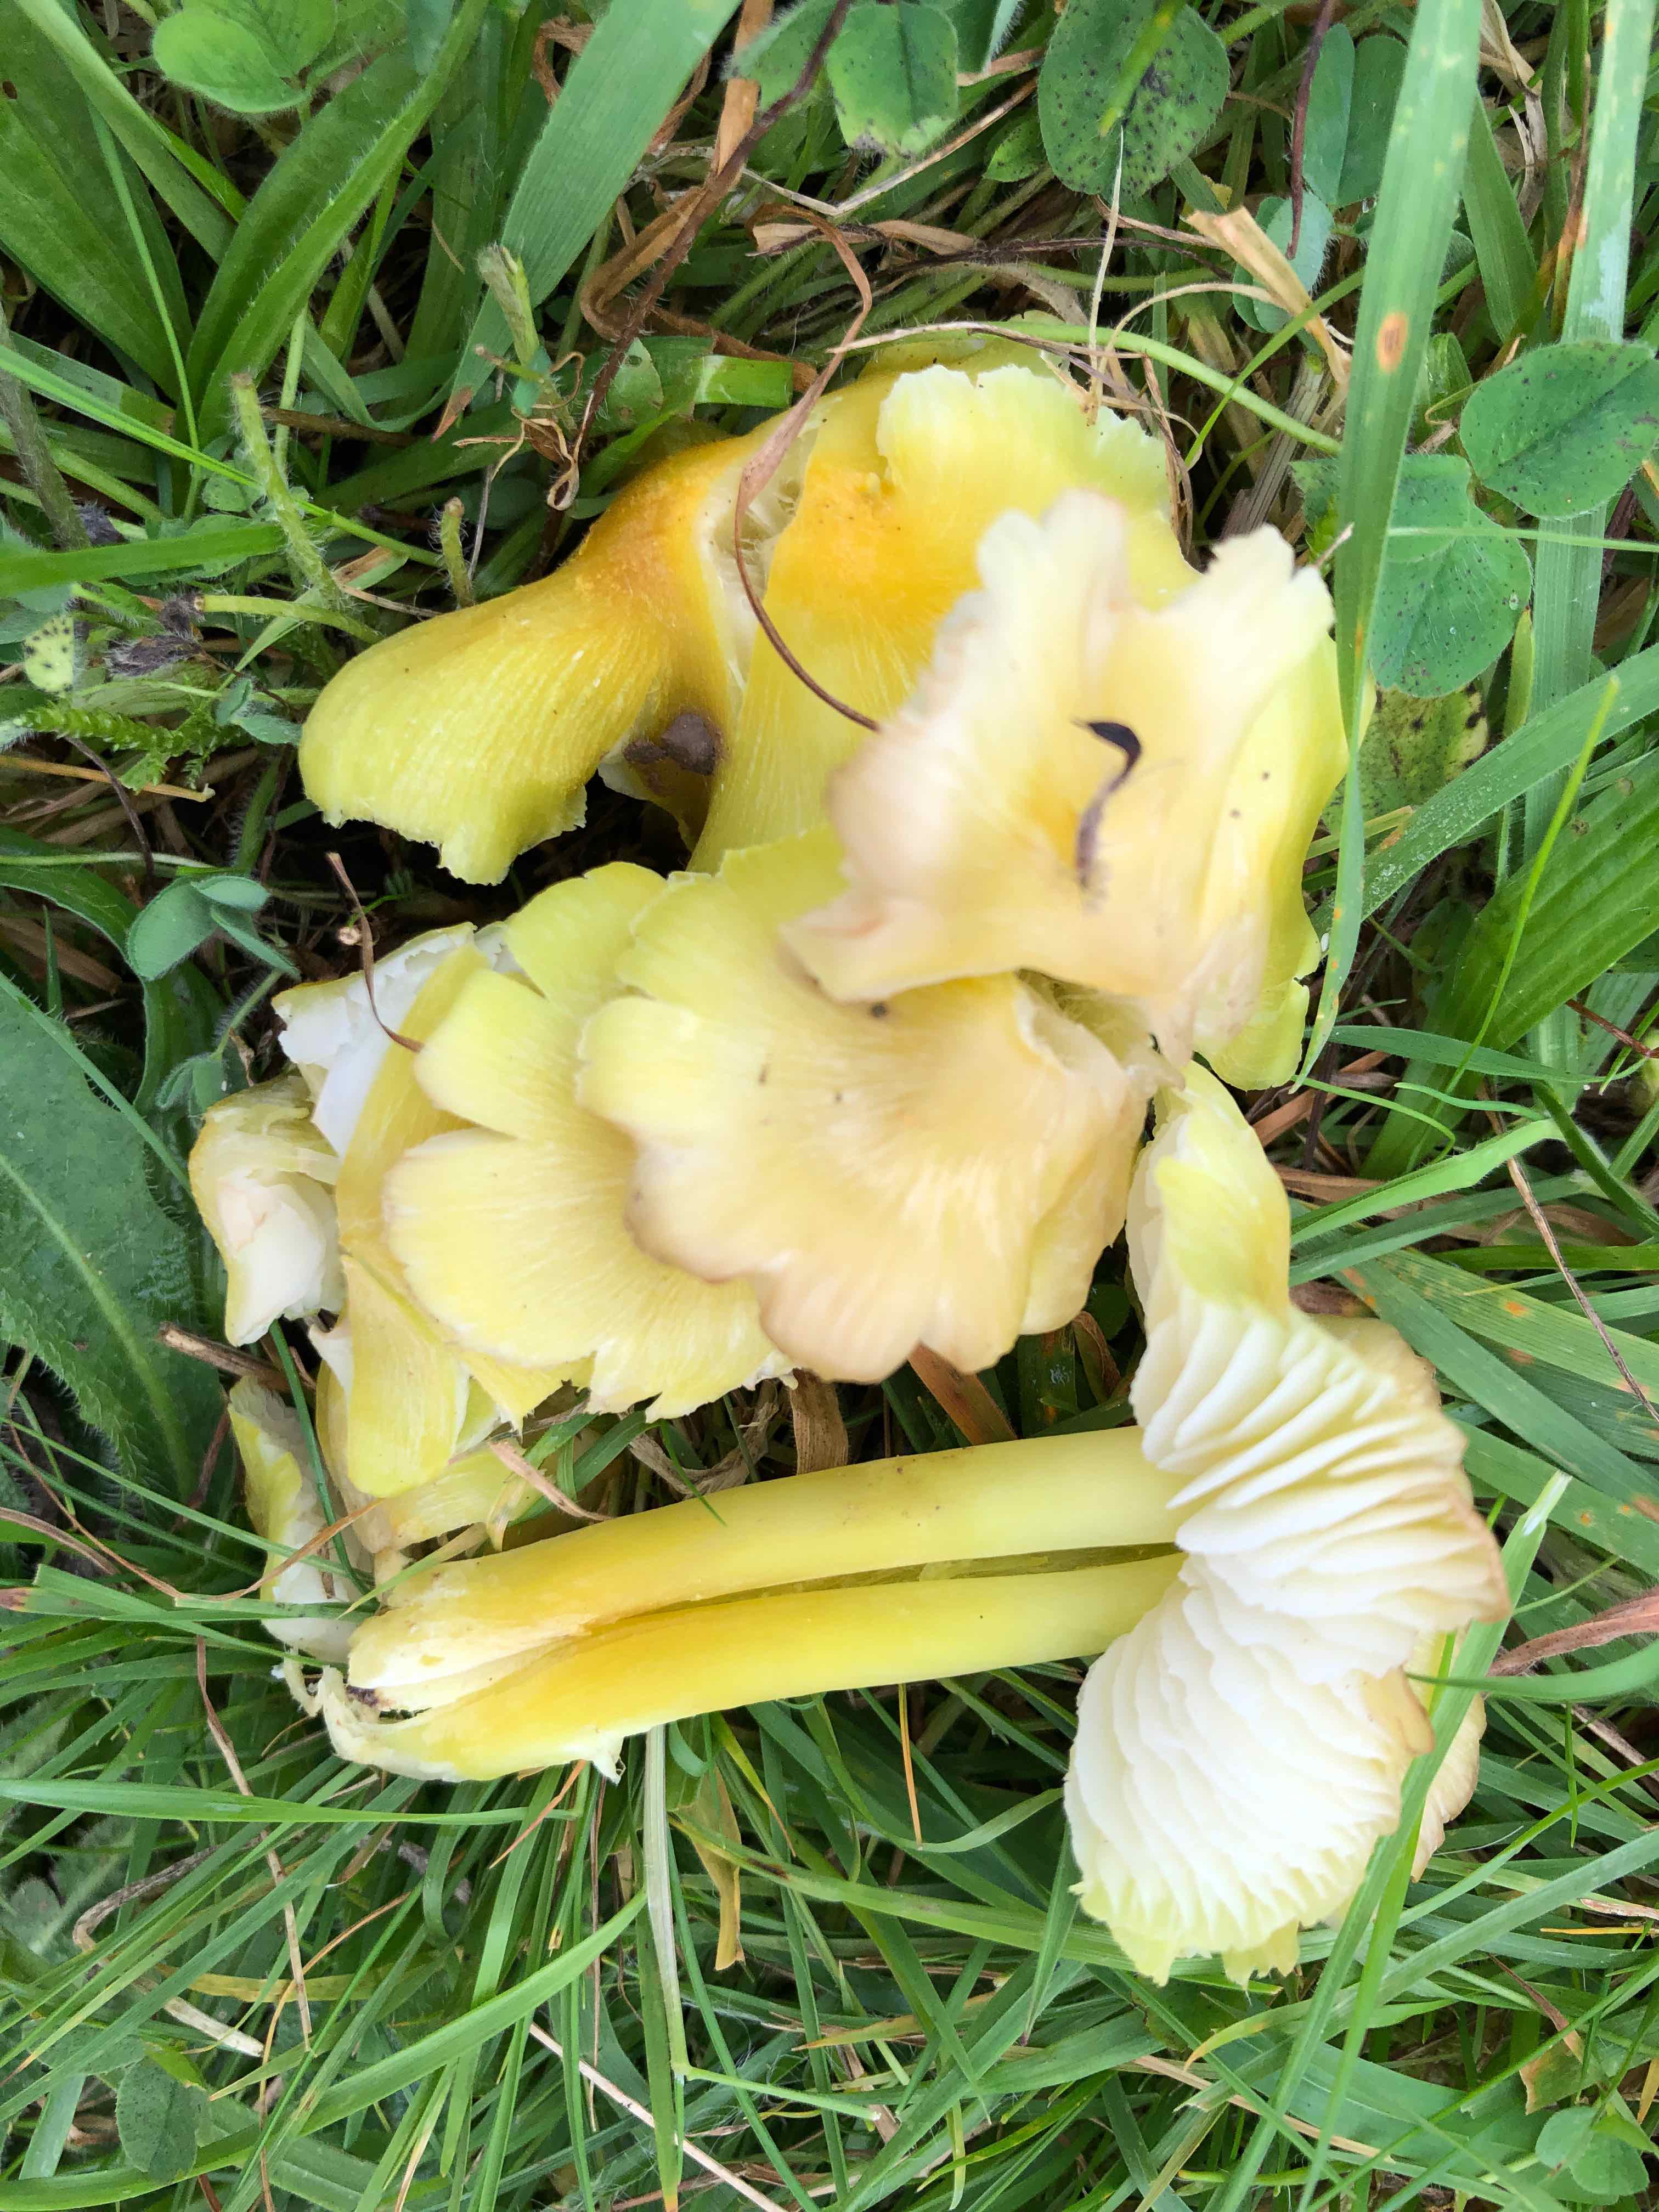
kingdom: Fungi
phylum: Basidiomycota
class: Agaricomycetes
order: Agaricales
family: Hygrophoraceae
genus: Hygrocybe
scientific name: Hygrocybe citrinovirens
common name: grøngul vokshat
